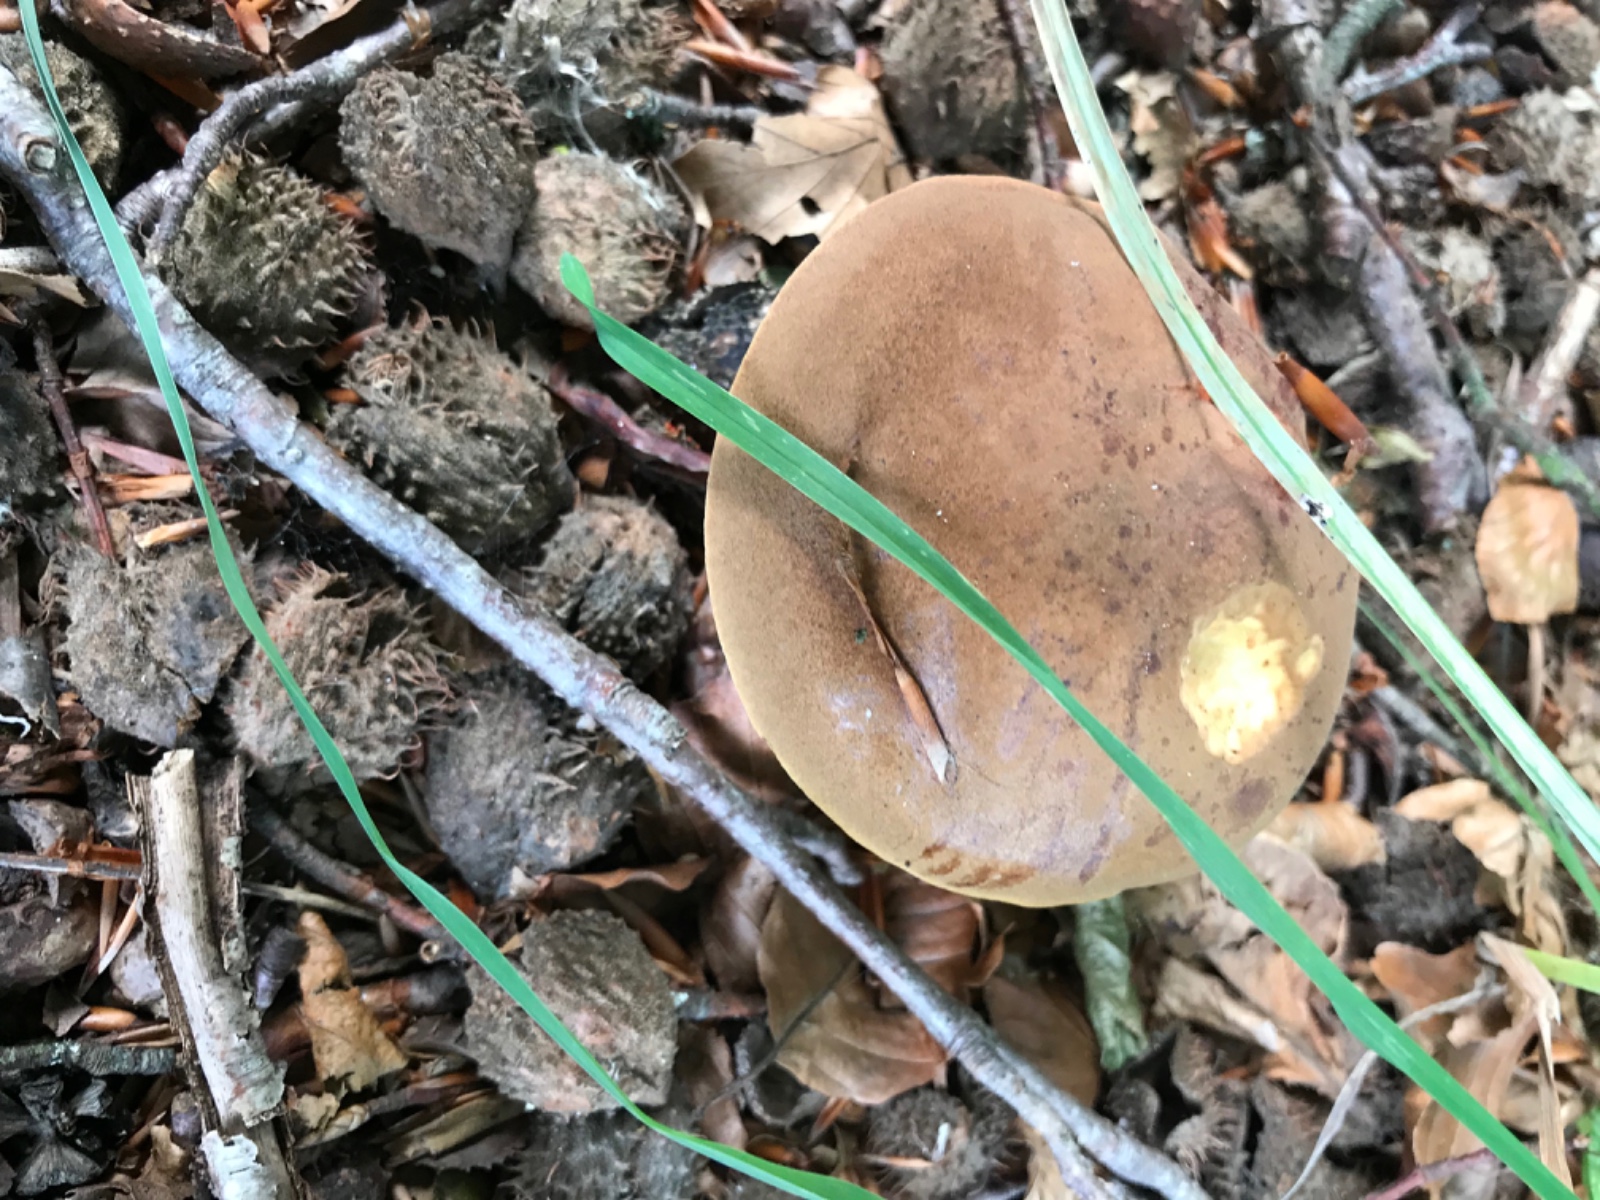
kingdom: Fungi
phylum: Basidiomycota
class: Agaricomycetes
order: Boletales
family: Boletaceae
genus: Imleria
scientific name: Imleria badia
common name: brunstokket rørhat
